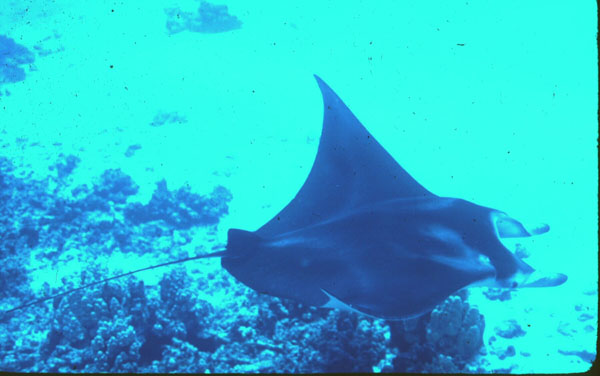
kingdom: Animalia
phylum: Chordata
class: Elasmobranchii
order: Myliobatiformes
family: Myliobatidae
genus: Mobula
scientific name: Mobula birostris
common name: Manta ray
